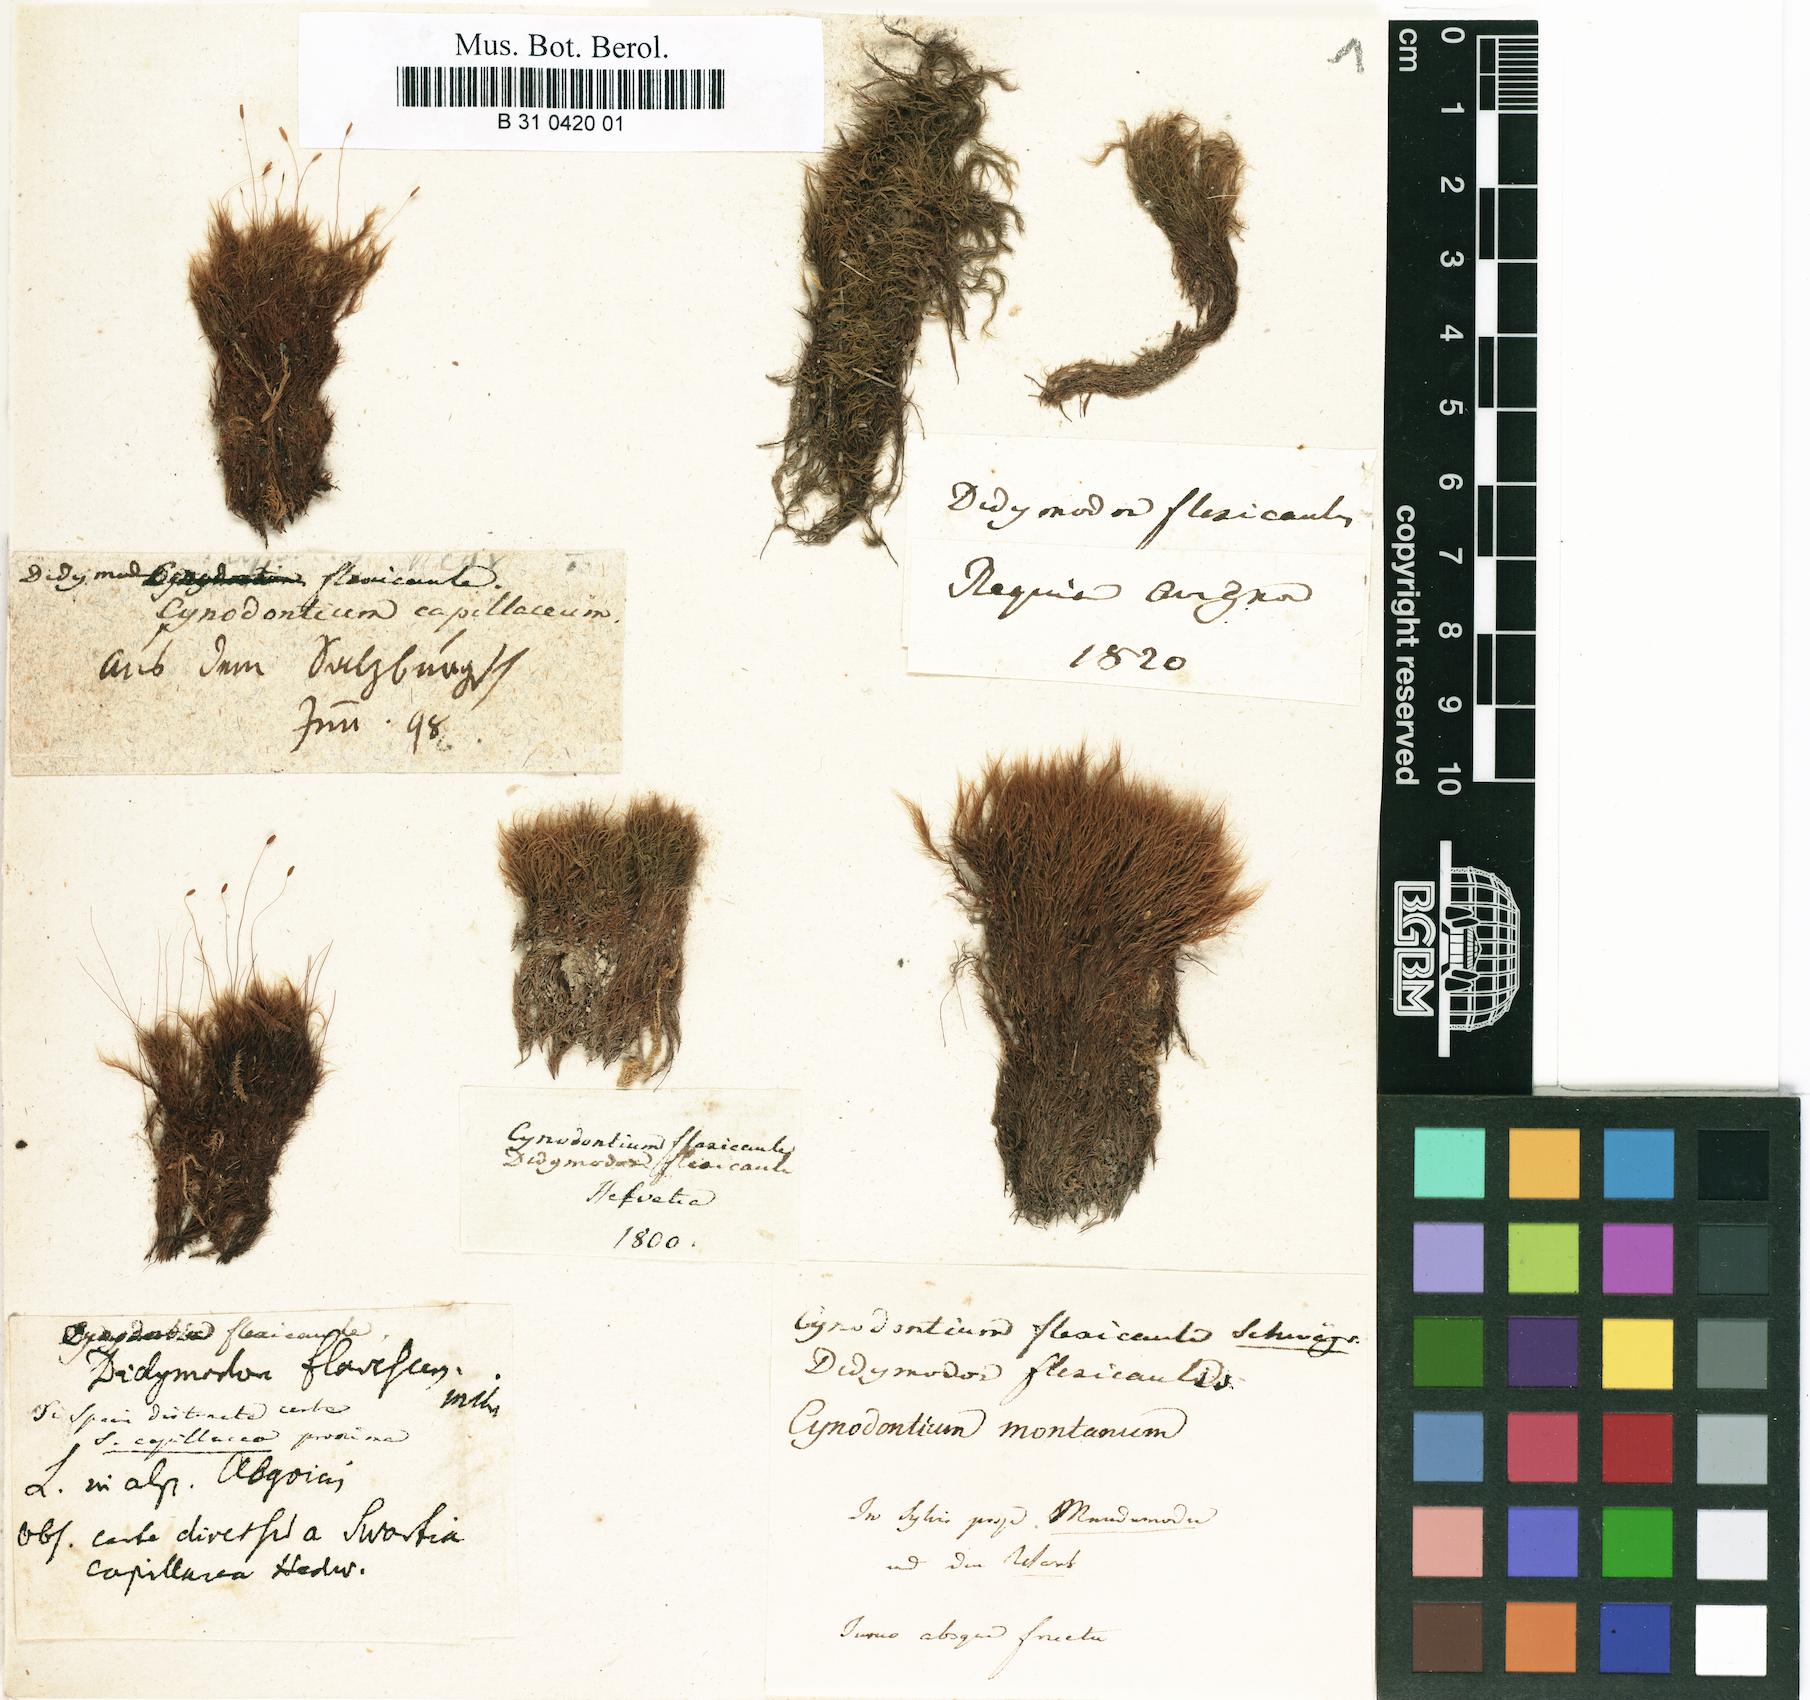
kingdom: Plantae
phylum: Bryophyta
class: Bryopsida
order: Scouleriales
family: Flexitrichaceae
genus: Flexitrichum
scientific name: Flexitrichum flexicaule
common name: Bendy ditrichum
